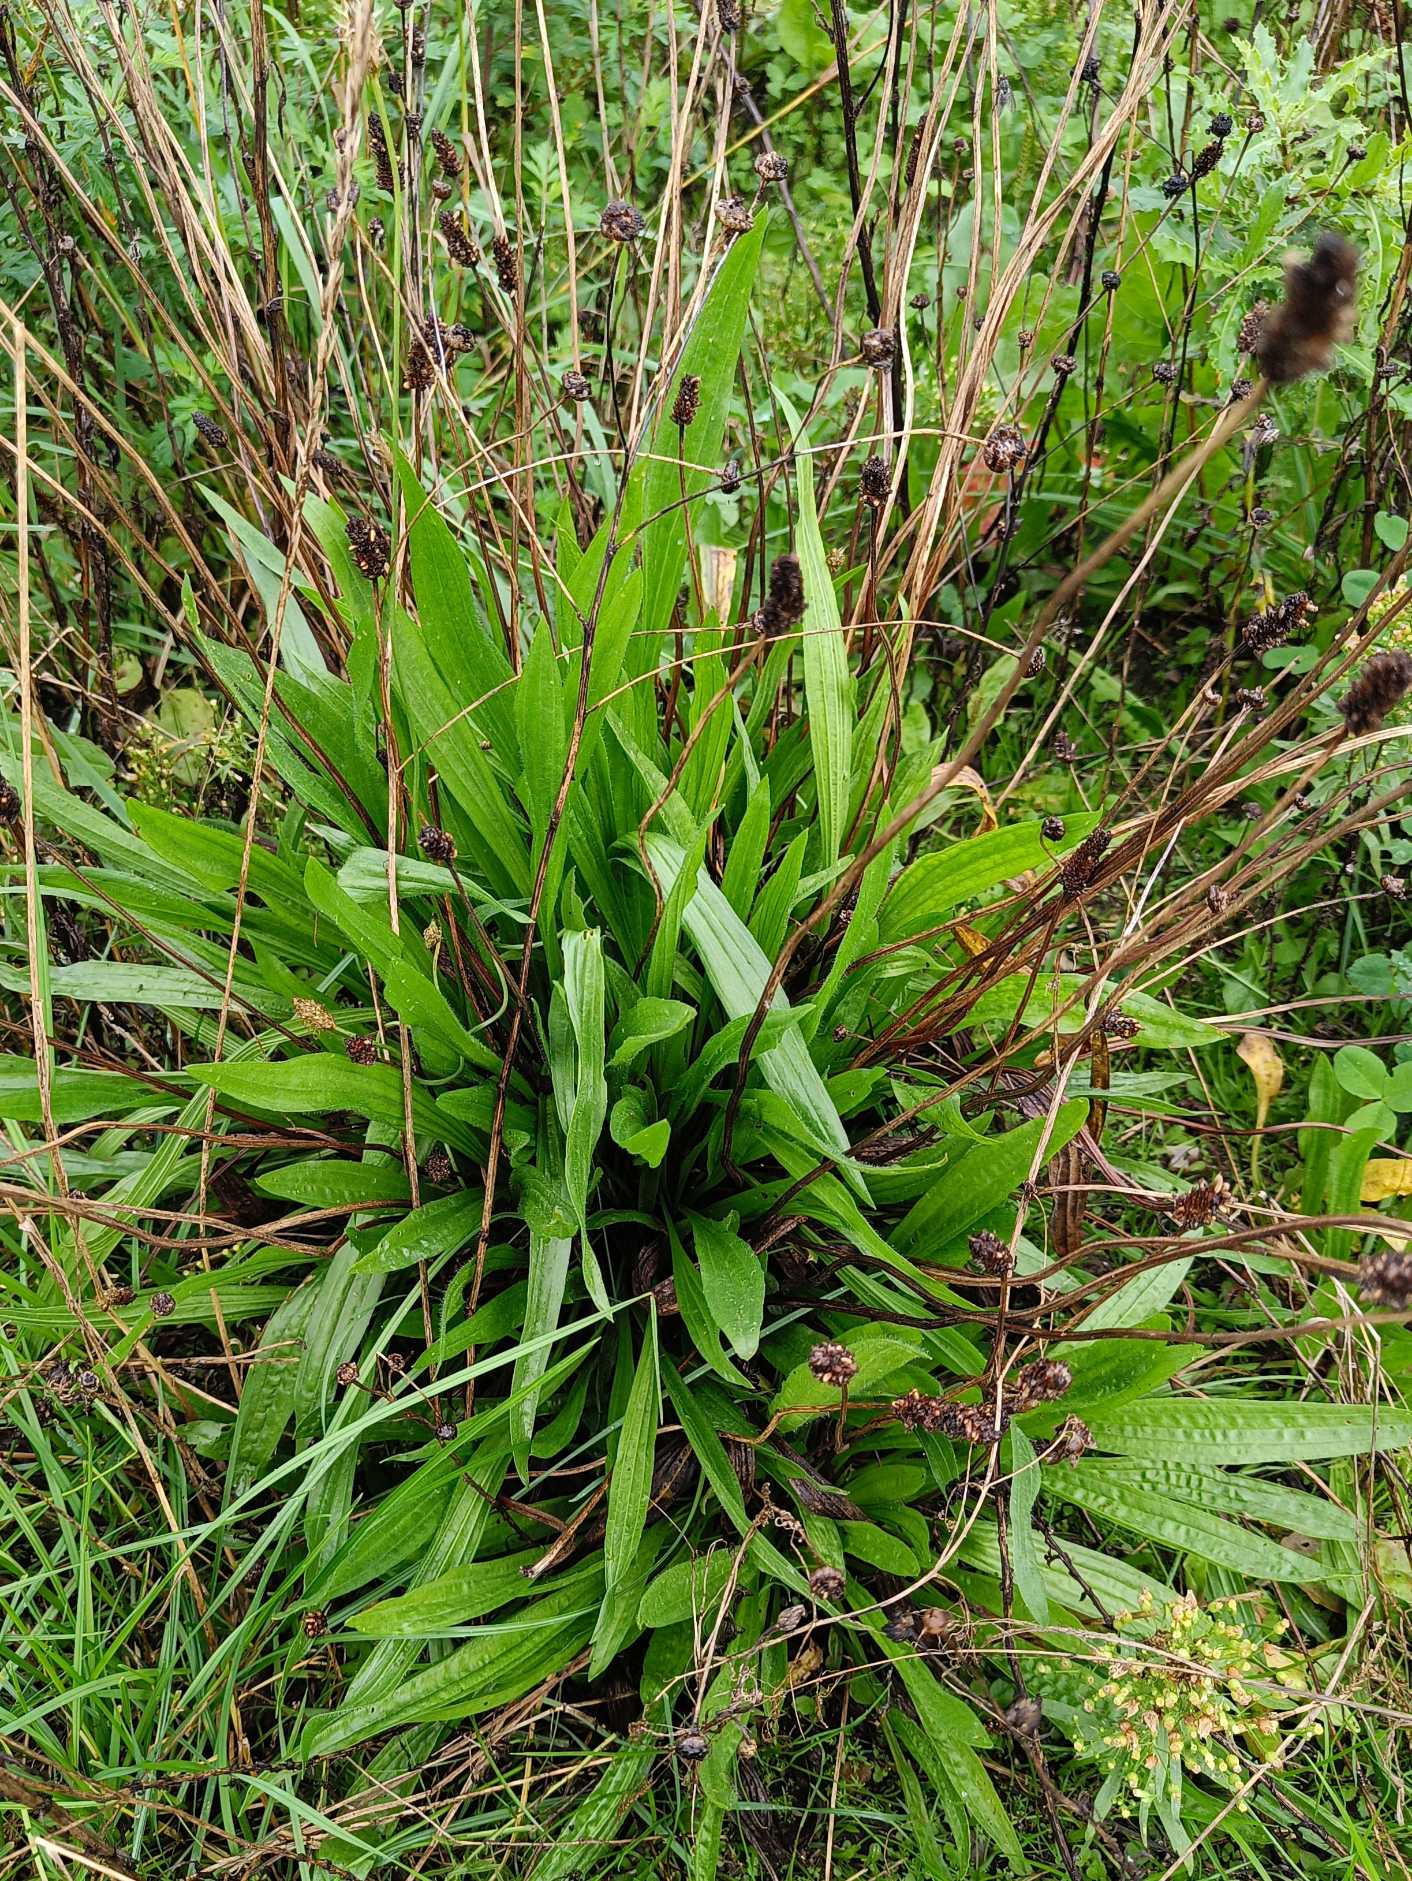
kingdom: Plantae
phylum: Tracheophyta
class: Magnoliopsida
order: Lamiales
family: Plantaginaceae
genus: Plantago
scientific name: Plantago lanceolata
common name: Lancet-vejbred
